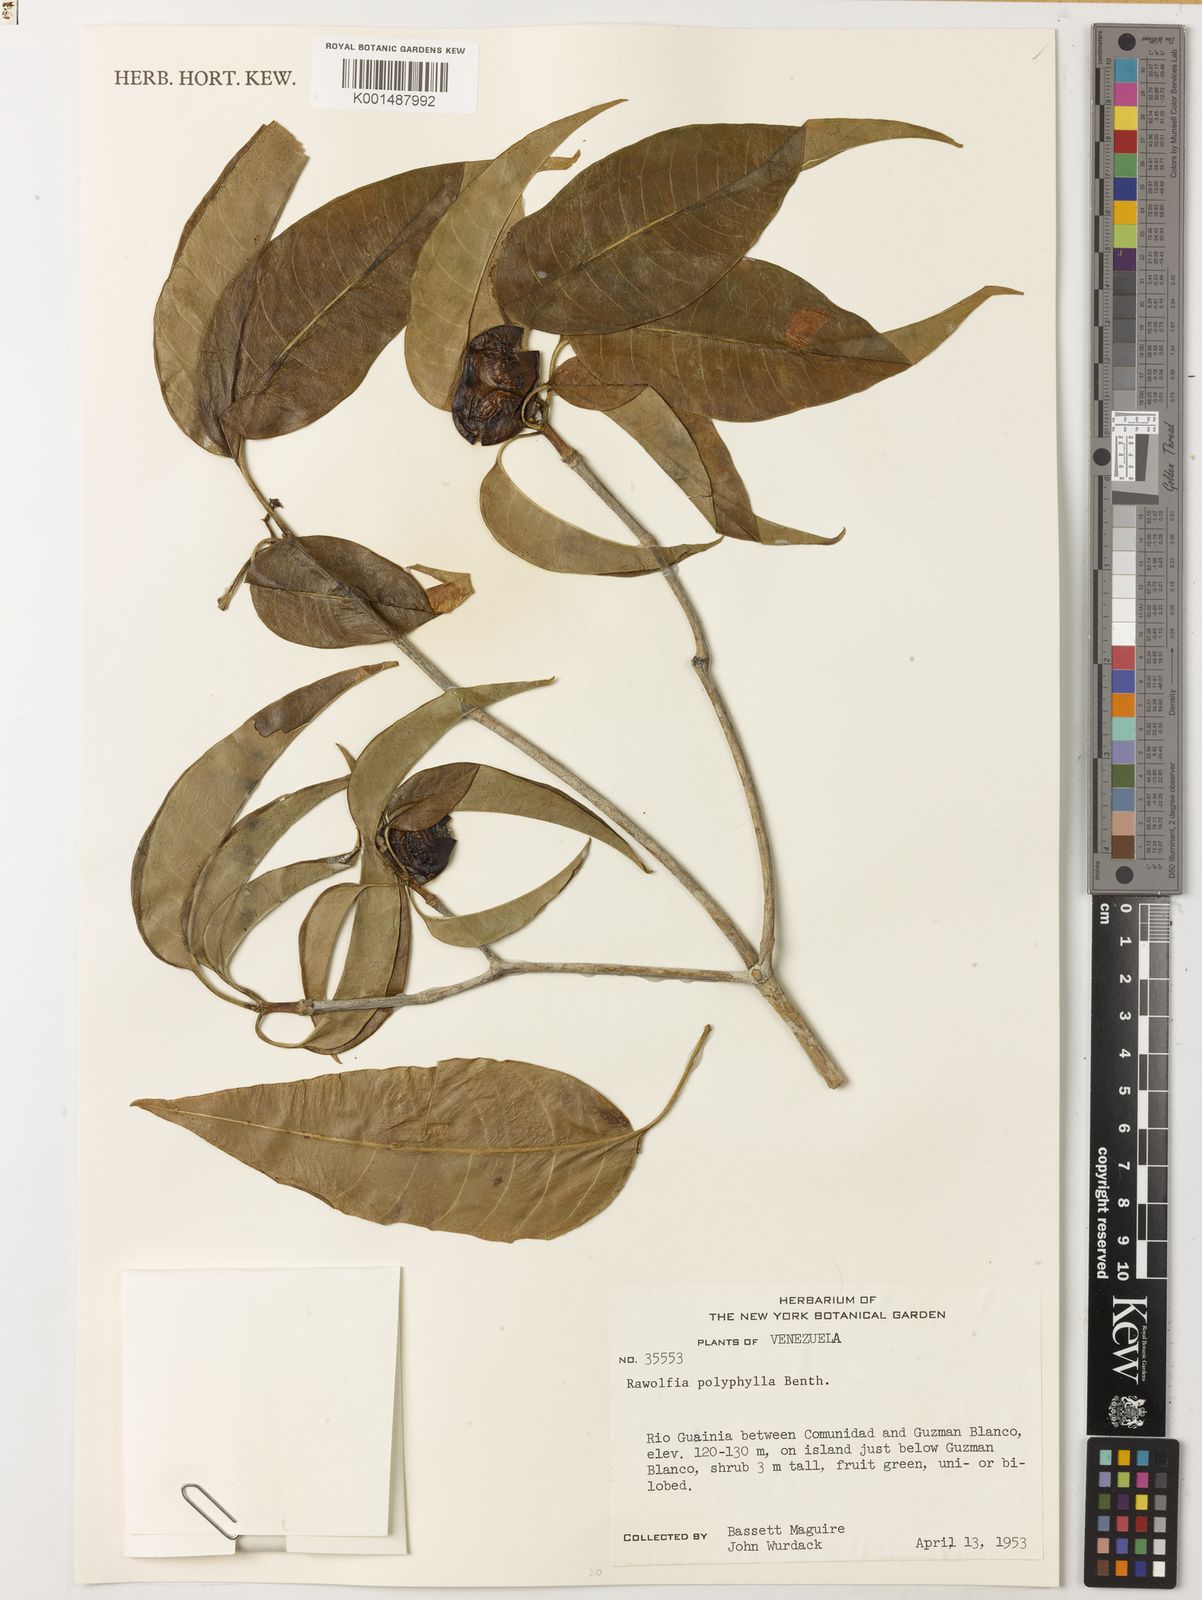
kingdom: Plantae
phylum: Tracheophyta
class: Magnoliopsida
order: Gentianales
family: Apocynaceae
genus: Rauvolfia
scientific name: Rauvolfia polyphylla
